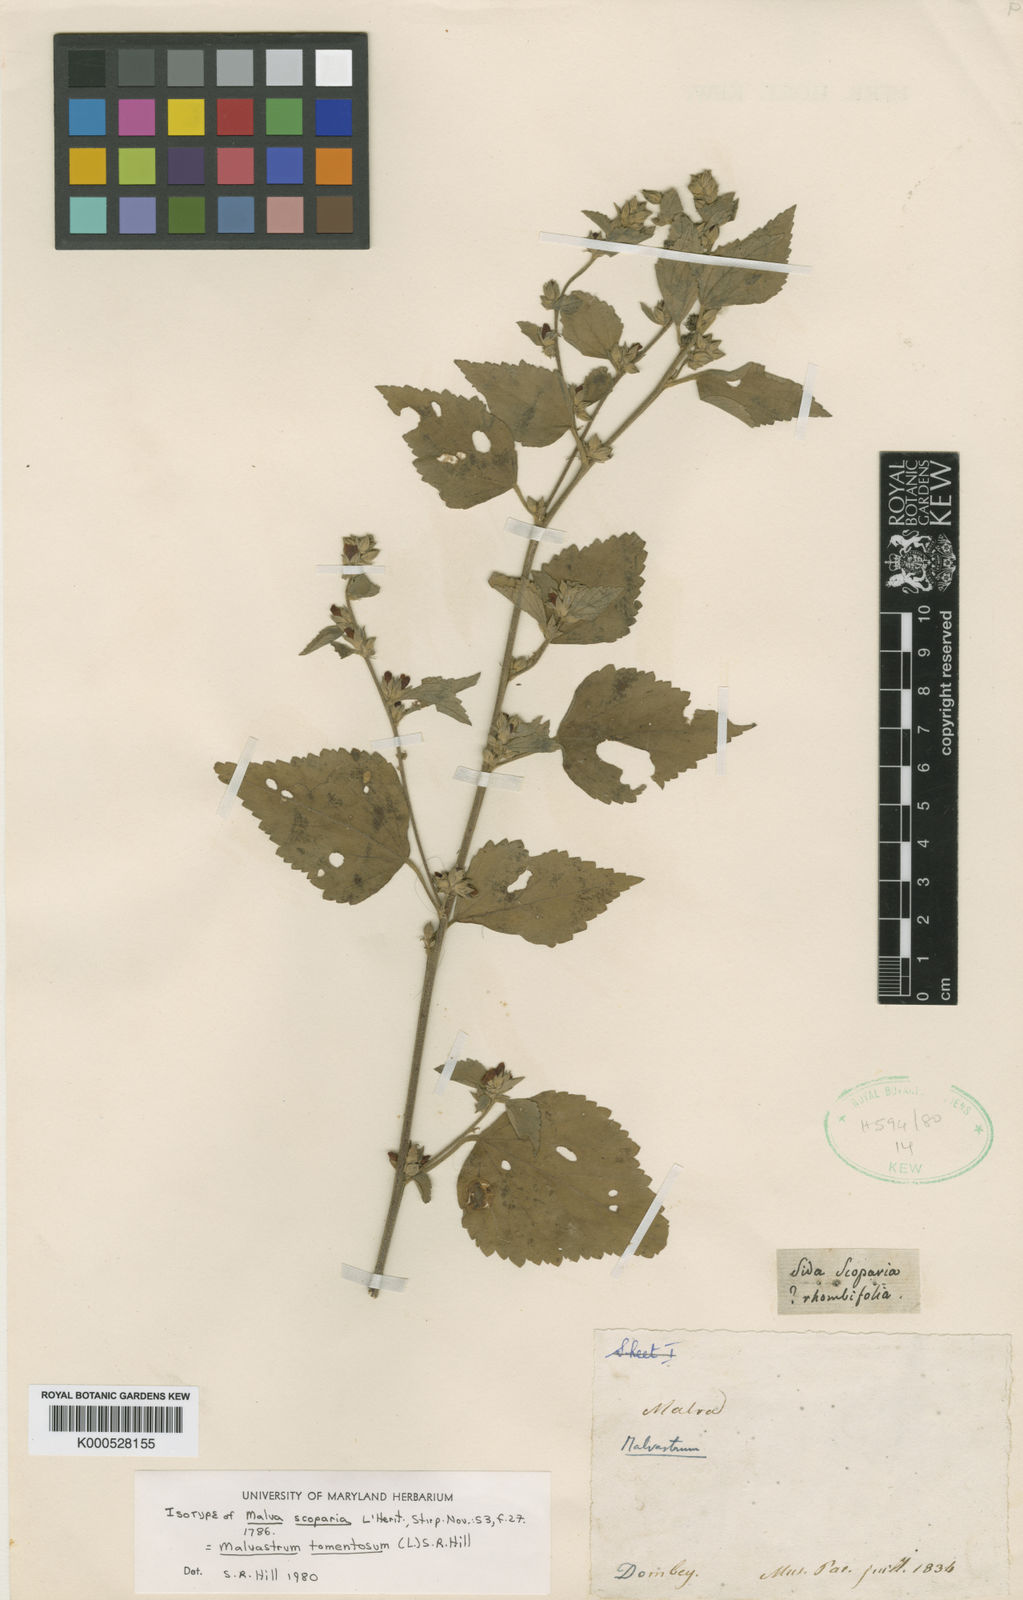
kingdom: Plantae
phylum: Tracheophyta
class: Magnoliopsida
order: Malvales
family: Malvaceae
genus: Malvastrum
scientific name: Malvastrum tomentosum
